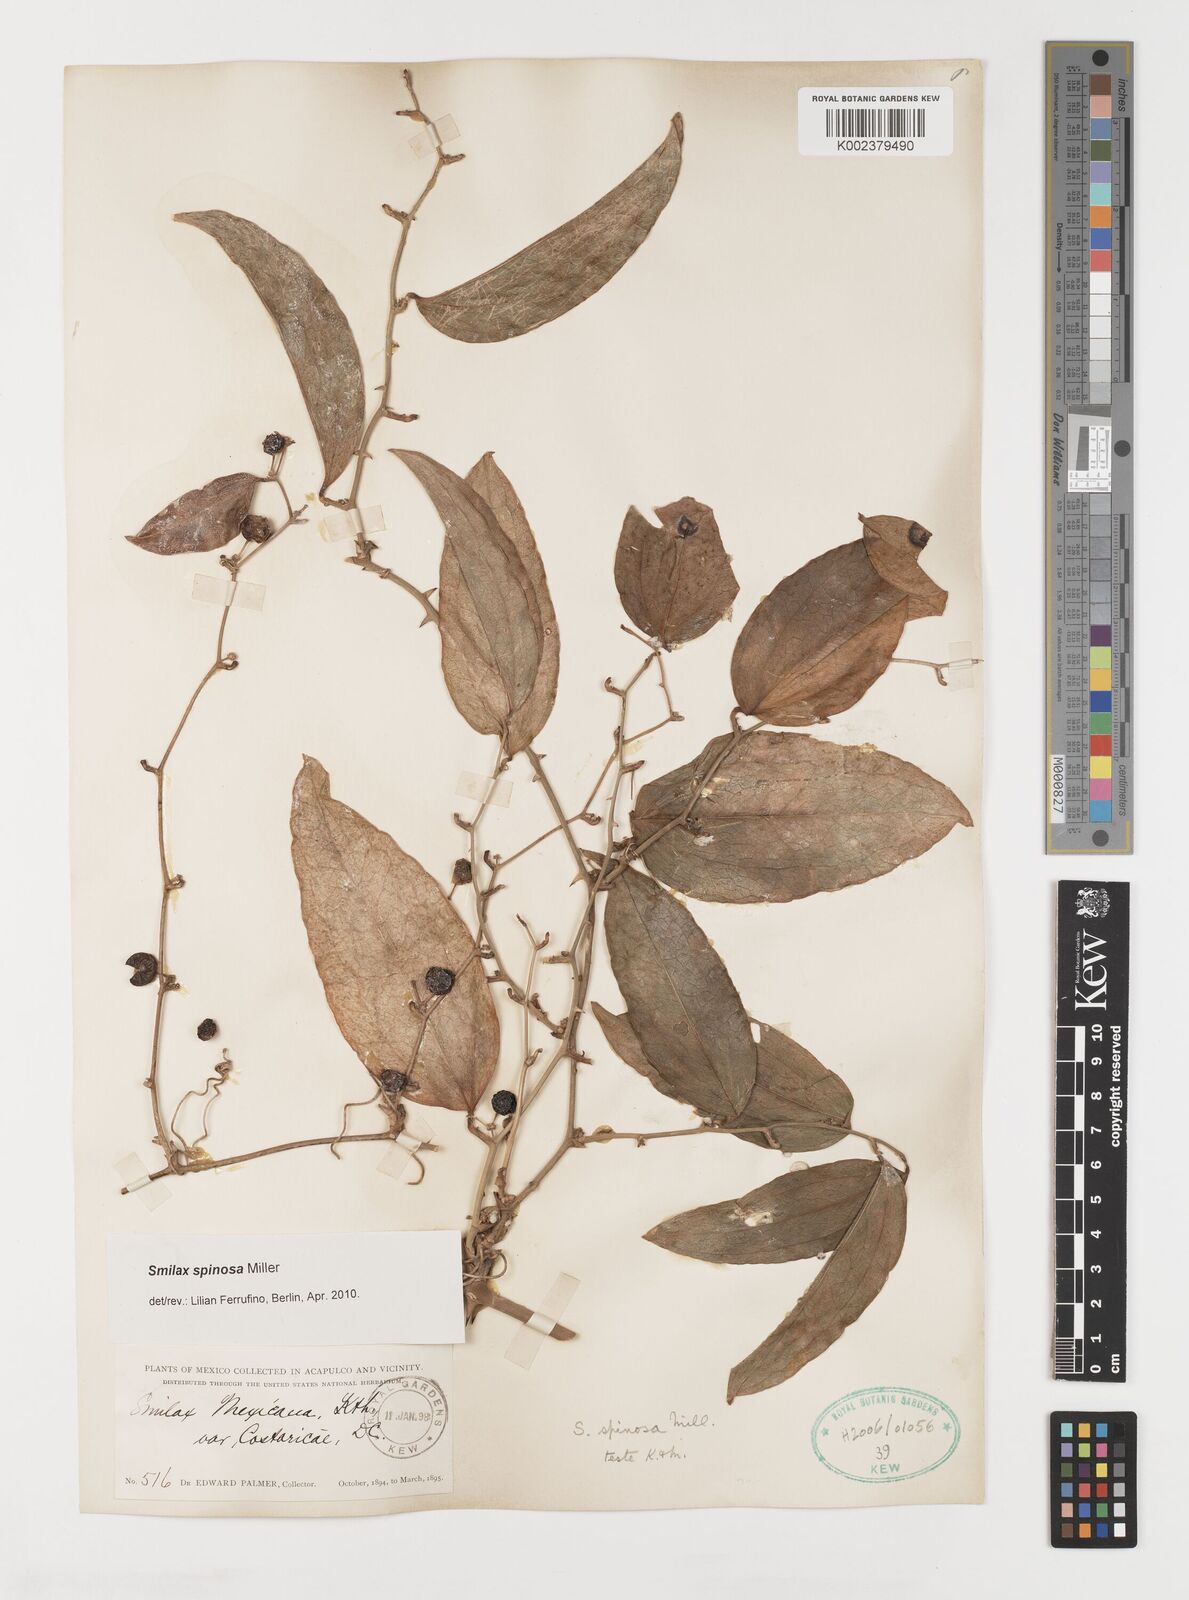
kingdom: Plantae
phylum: Tracheophyta
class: Liliopsida
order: Liliales
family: Smilacaceae
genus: Smilax
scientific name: Smilax spinosa
